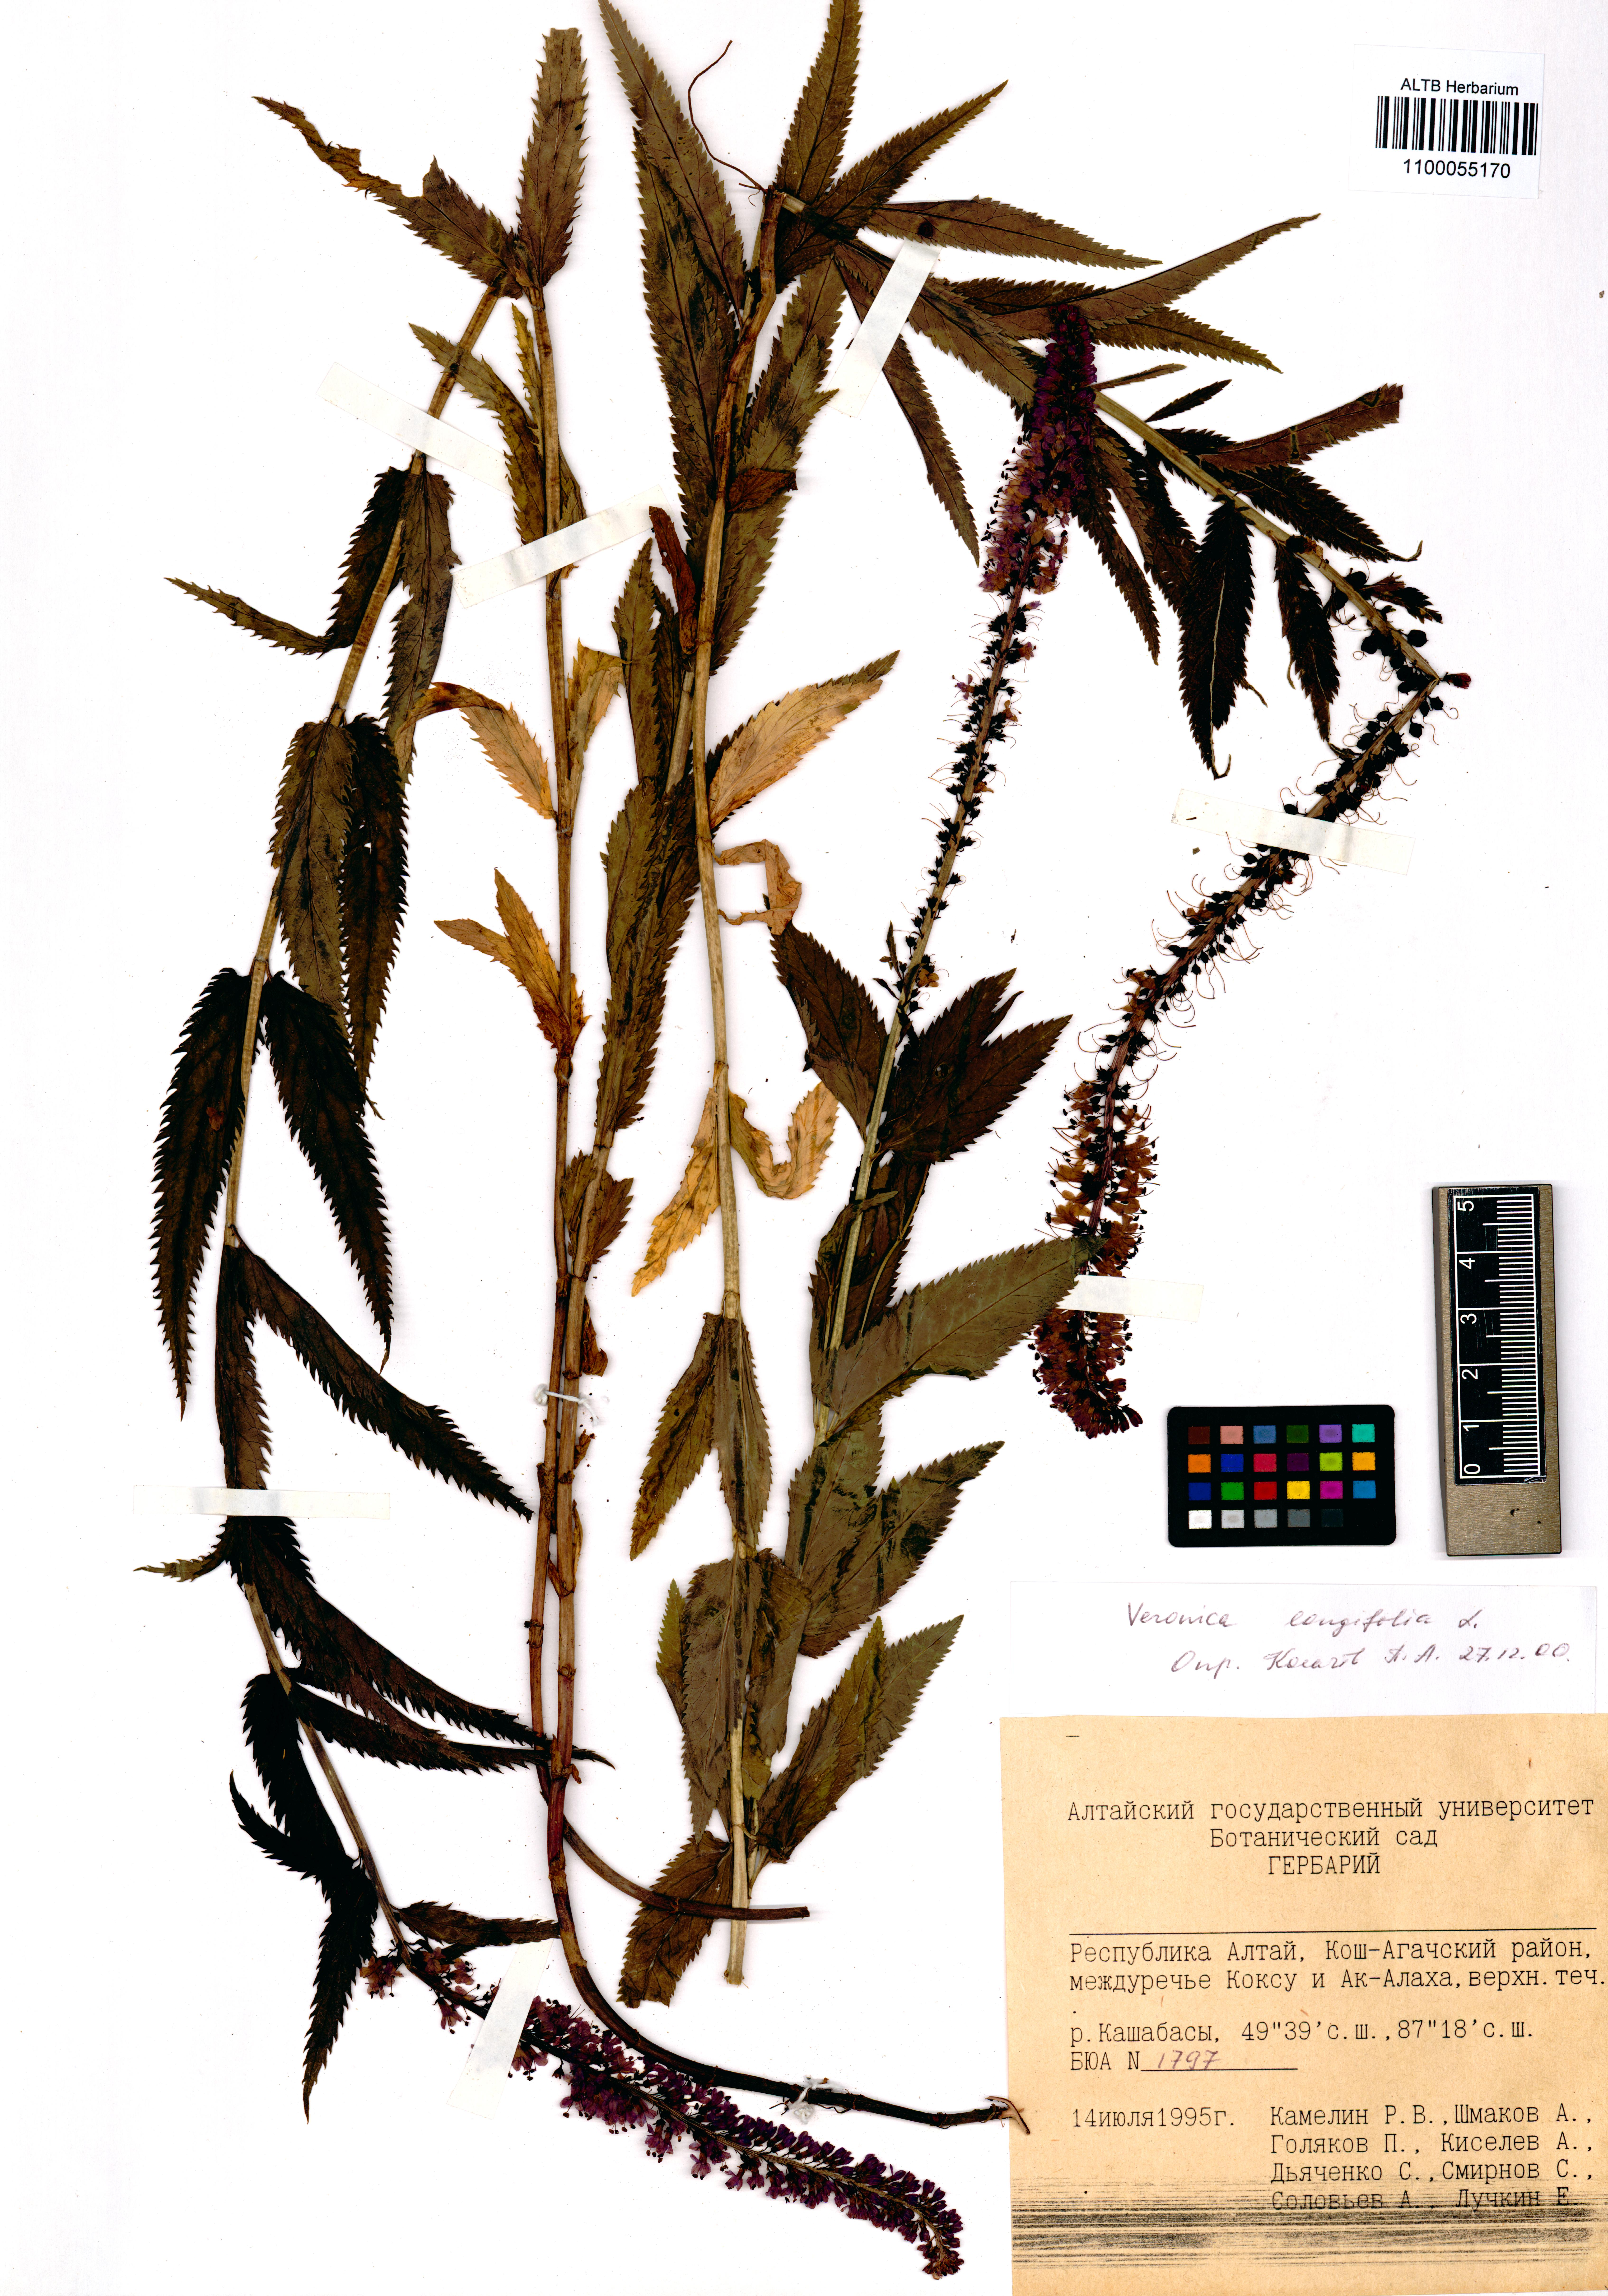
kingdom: Plantae
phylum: Tracheophyta
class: Magnoliopsida
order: Lamiales
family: Plantaginaceae
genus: Veronica
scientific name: Veronica longifolia
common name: Garden speedwell
